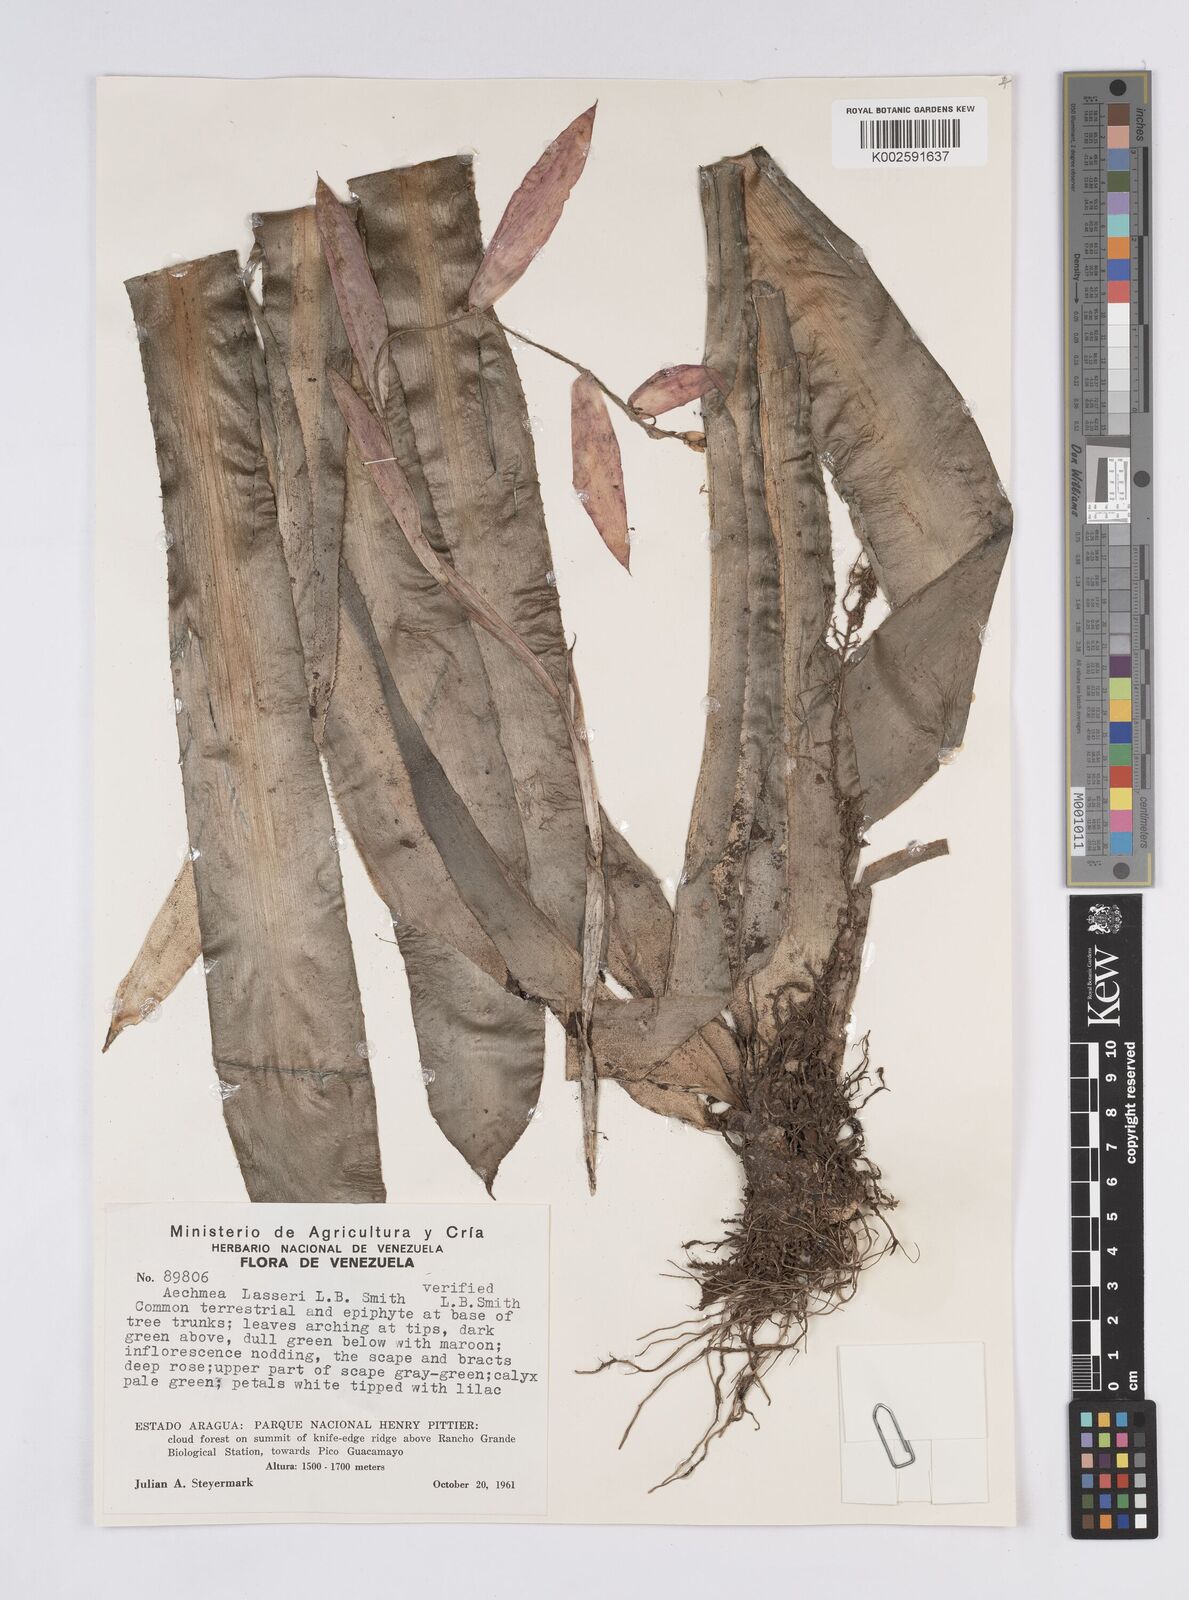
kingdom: Plantae
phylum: Tracheophyta
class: Liliopsida
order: Poales
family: Bromeliaceae
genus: Aechmea
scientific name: Aechmea lasseri
